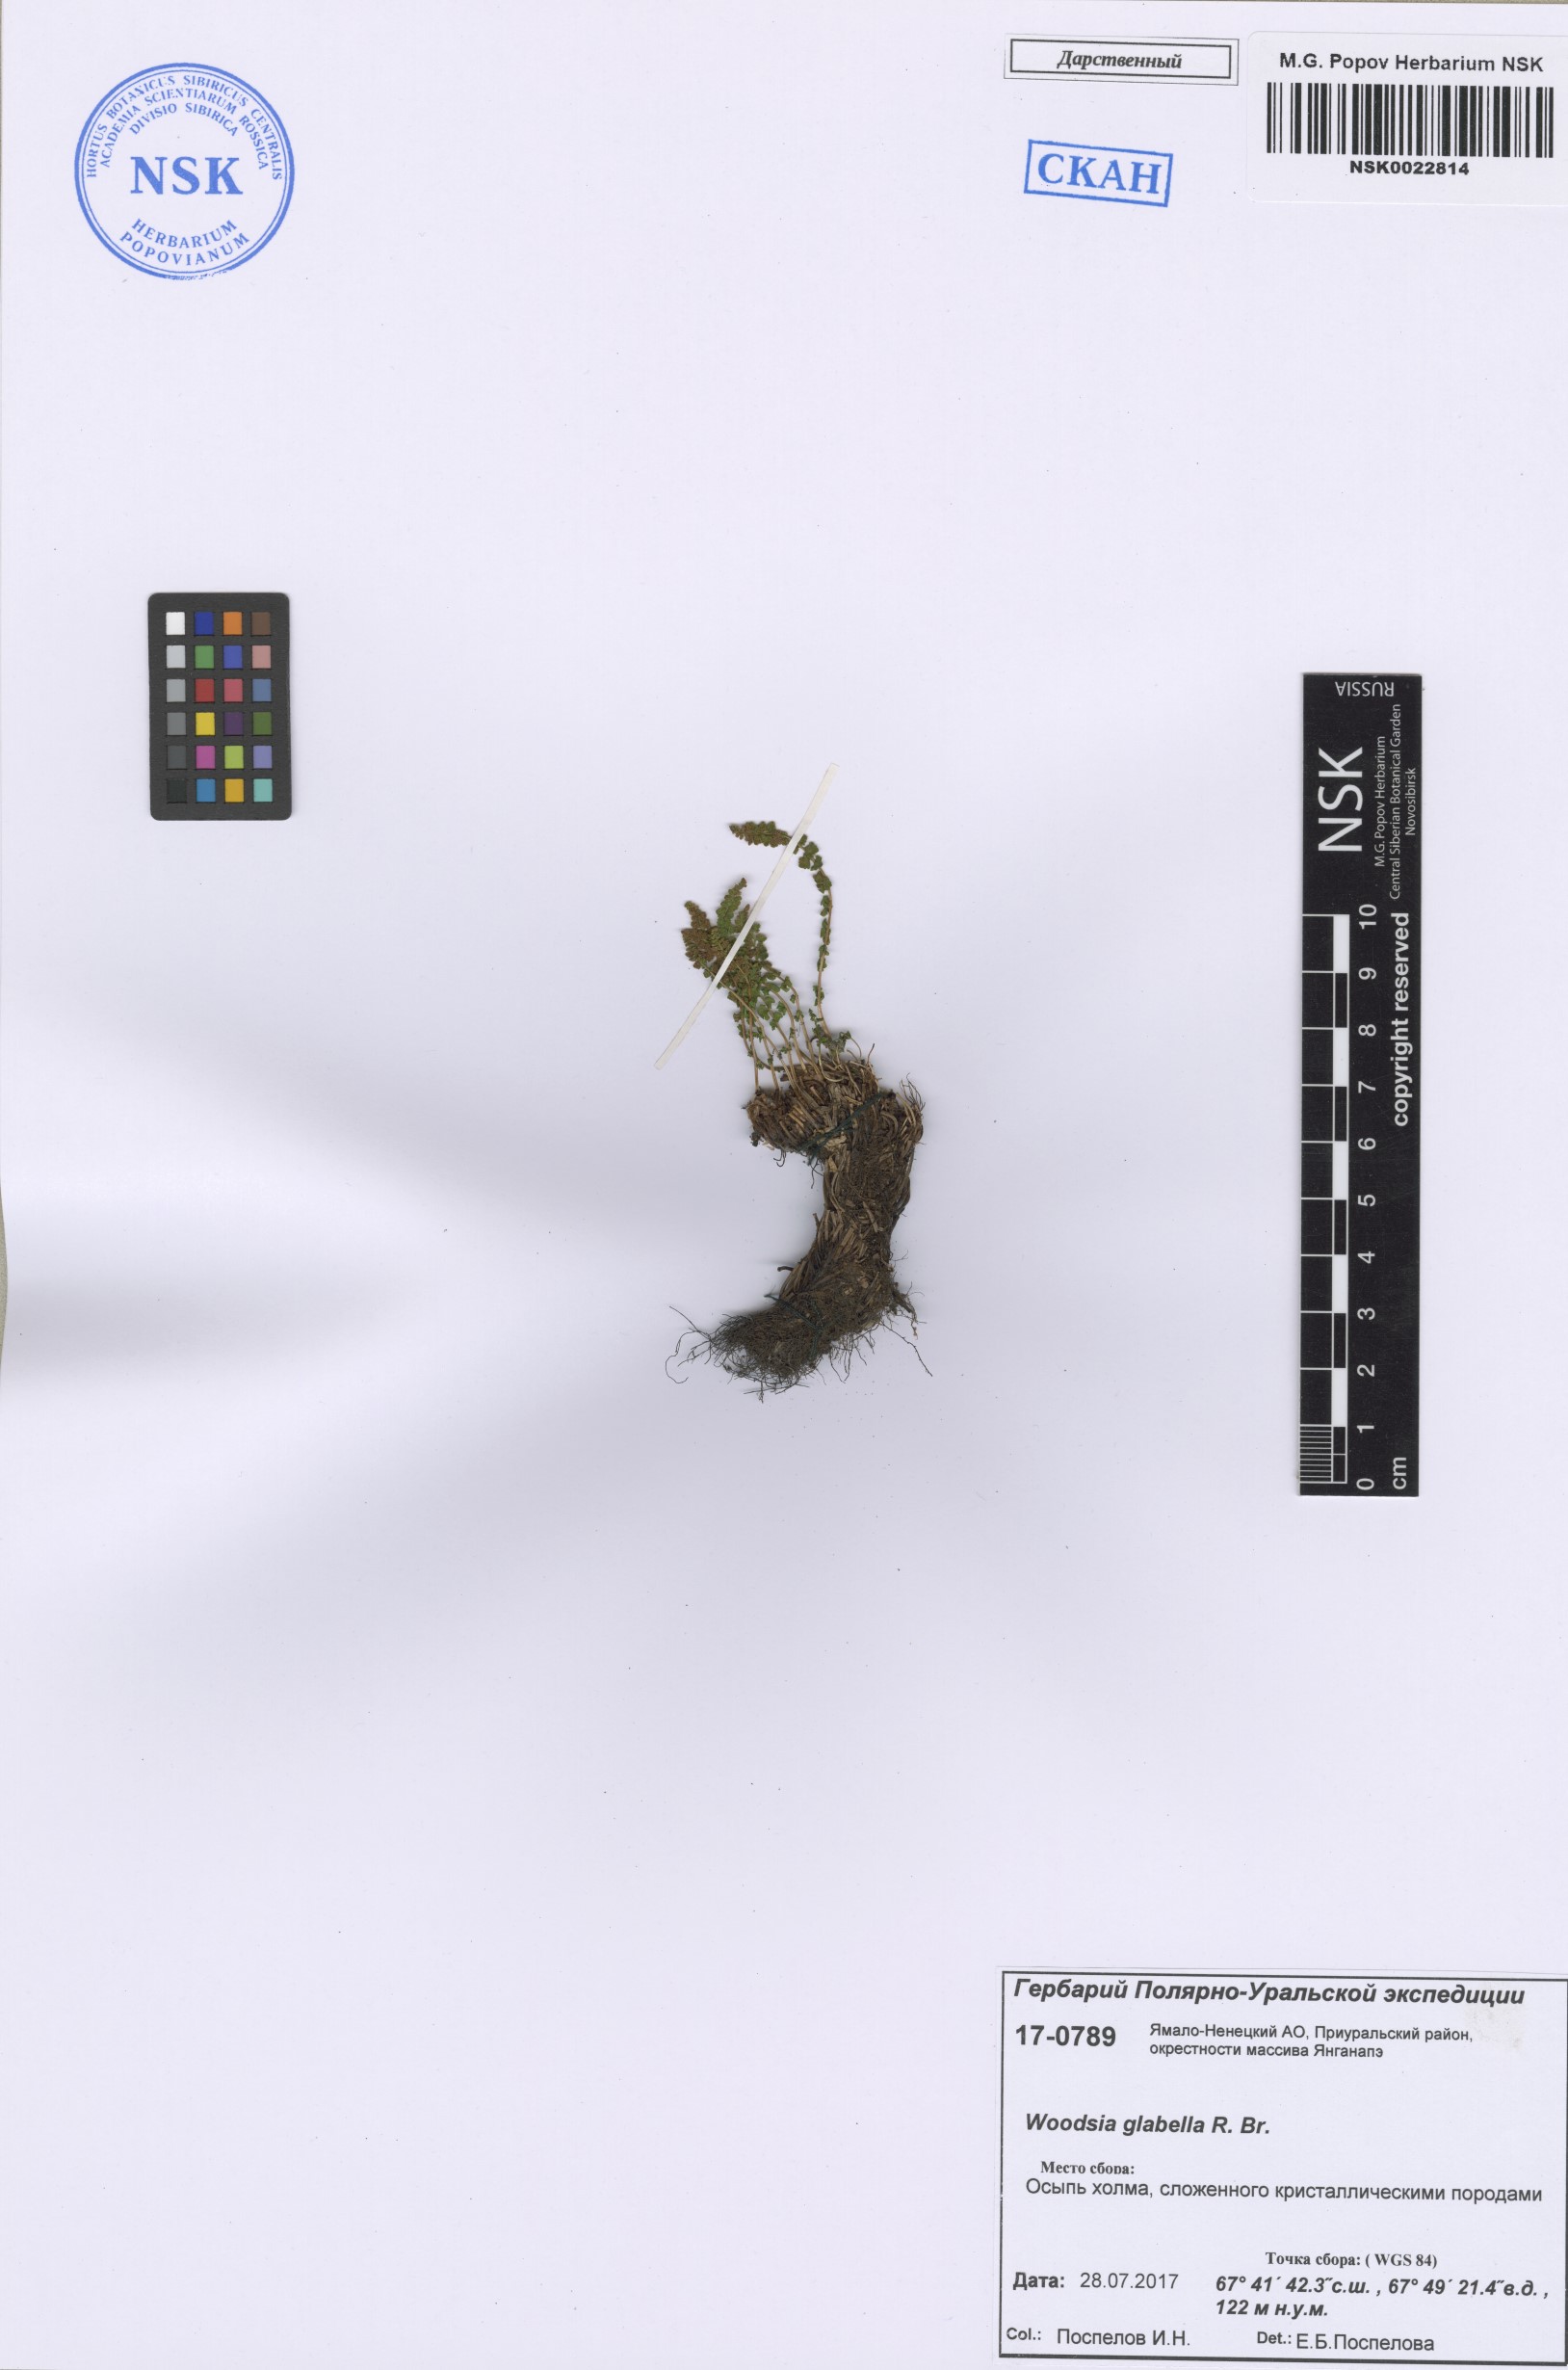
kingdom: Plantae
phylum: Tracheophyta
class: Polypodiopsida
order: Polypodiales
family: Woodsiaceae
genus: Woodsia
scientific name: Woodsia glabella
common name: Smooth woodsia
